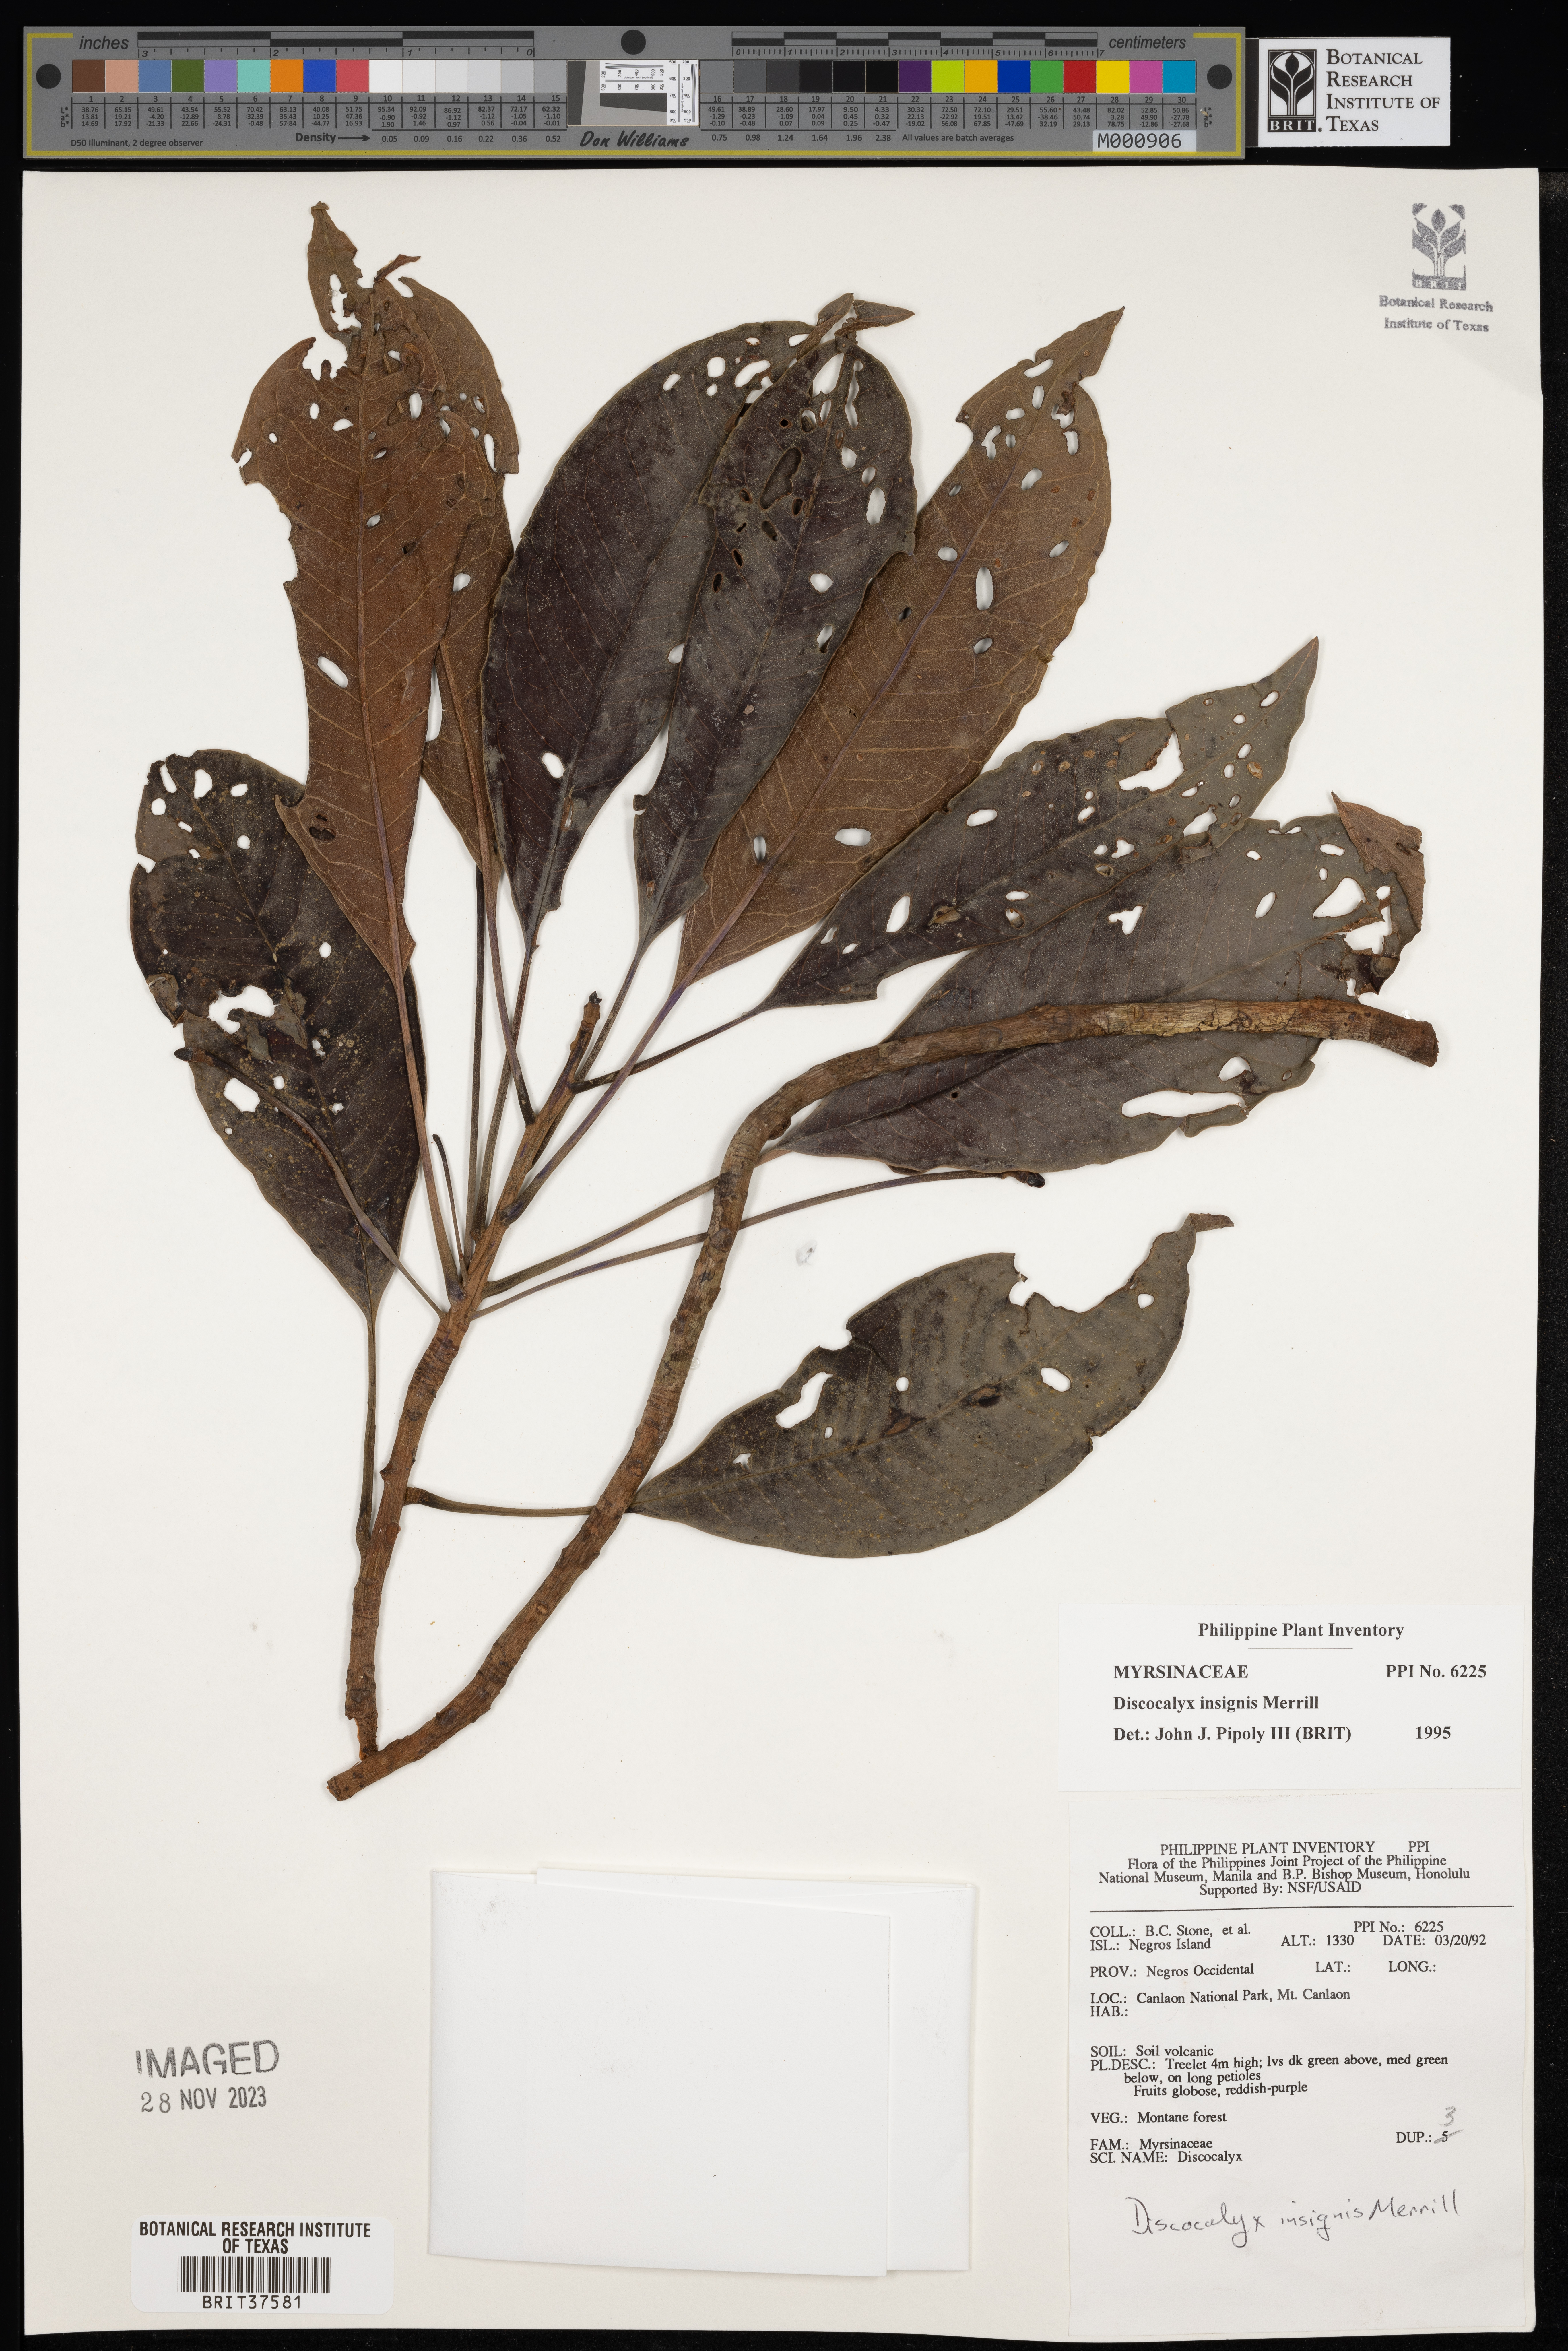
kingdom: Plantae
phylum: Tracheophyta
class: Magnoliopsida
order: Ericales
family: Primulaceae
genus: Discocalyx
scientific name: Discocalyx insignis
